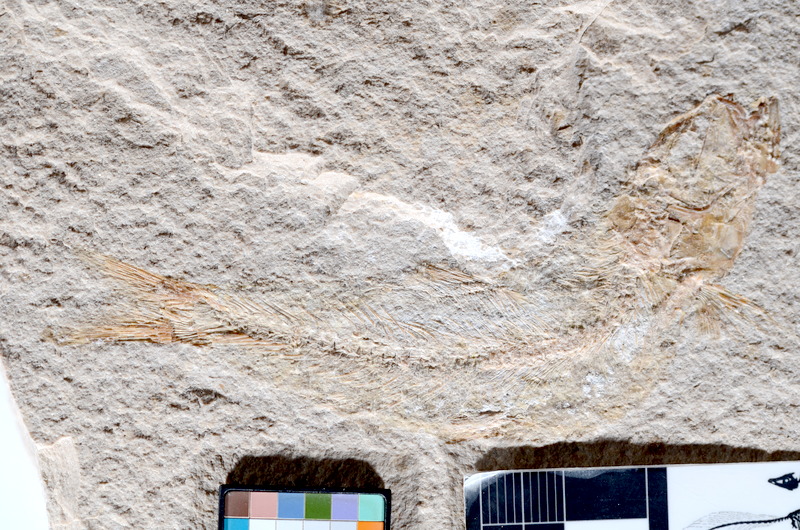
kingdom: Animalia
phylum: Chordata
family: Ascalaboidae
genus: Tharsis
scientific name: Tharsis dubius
